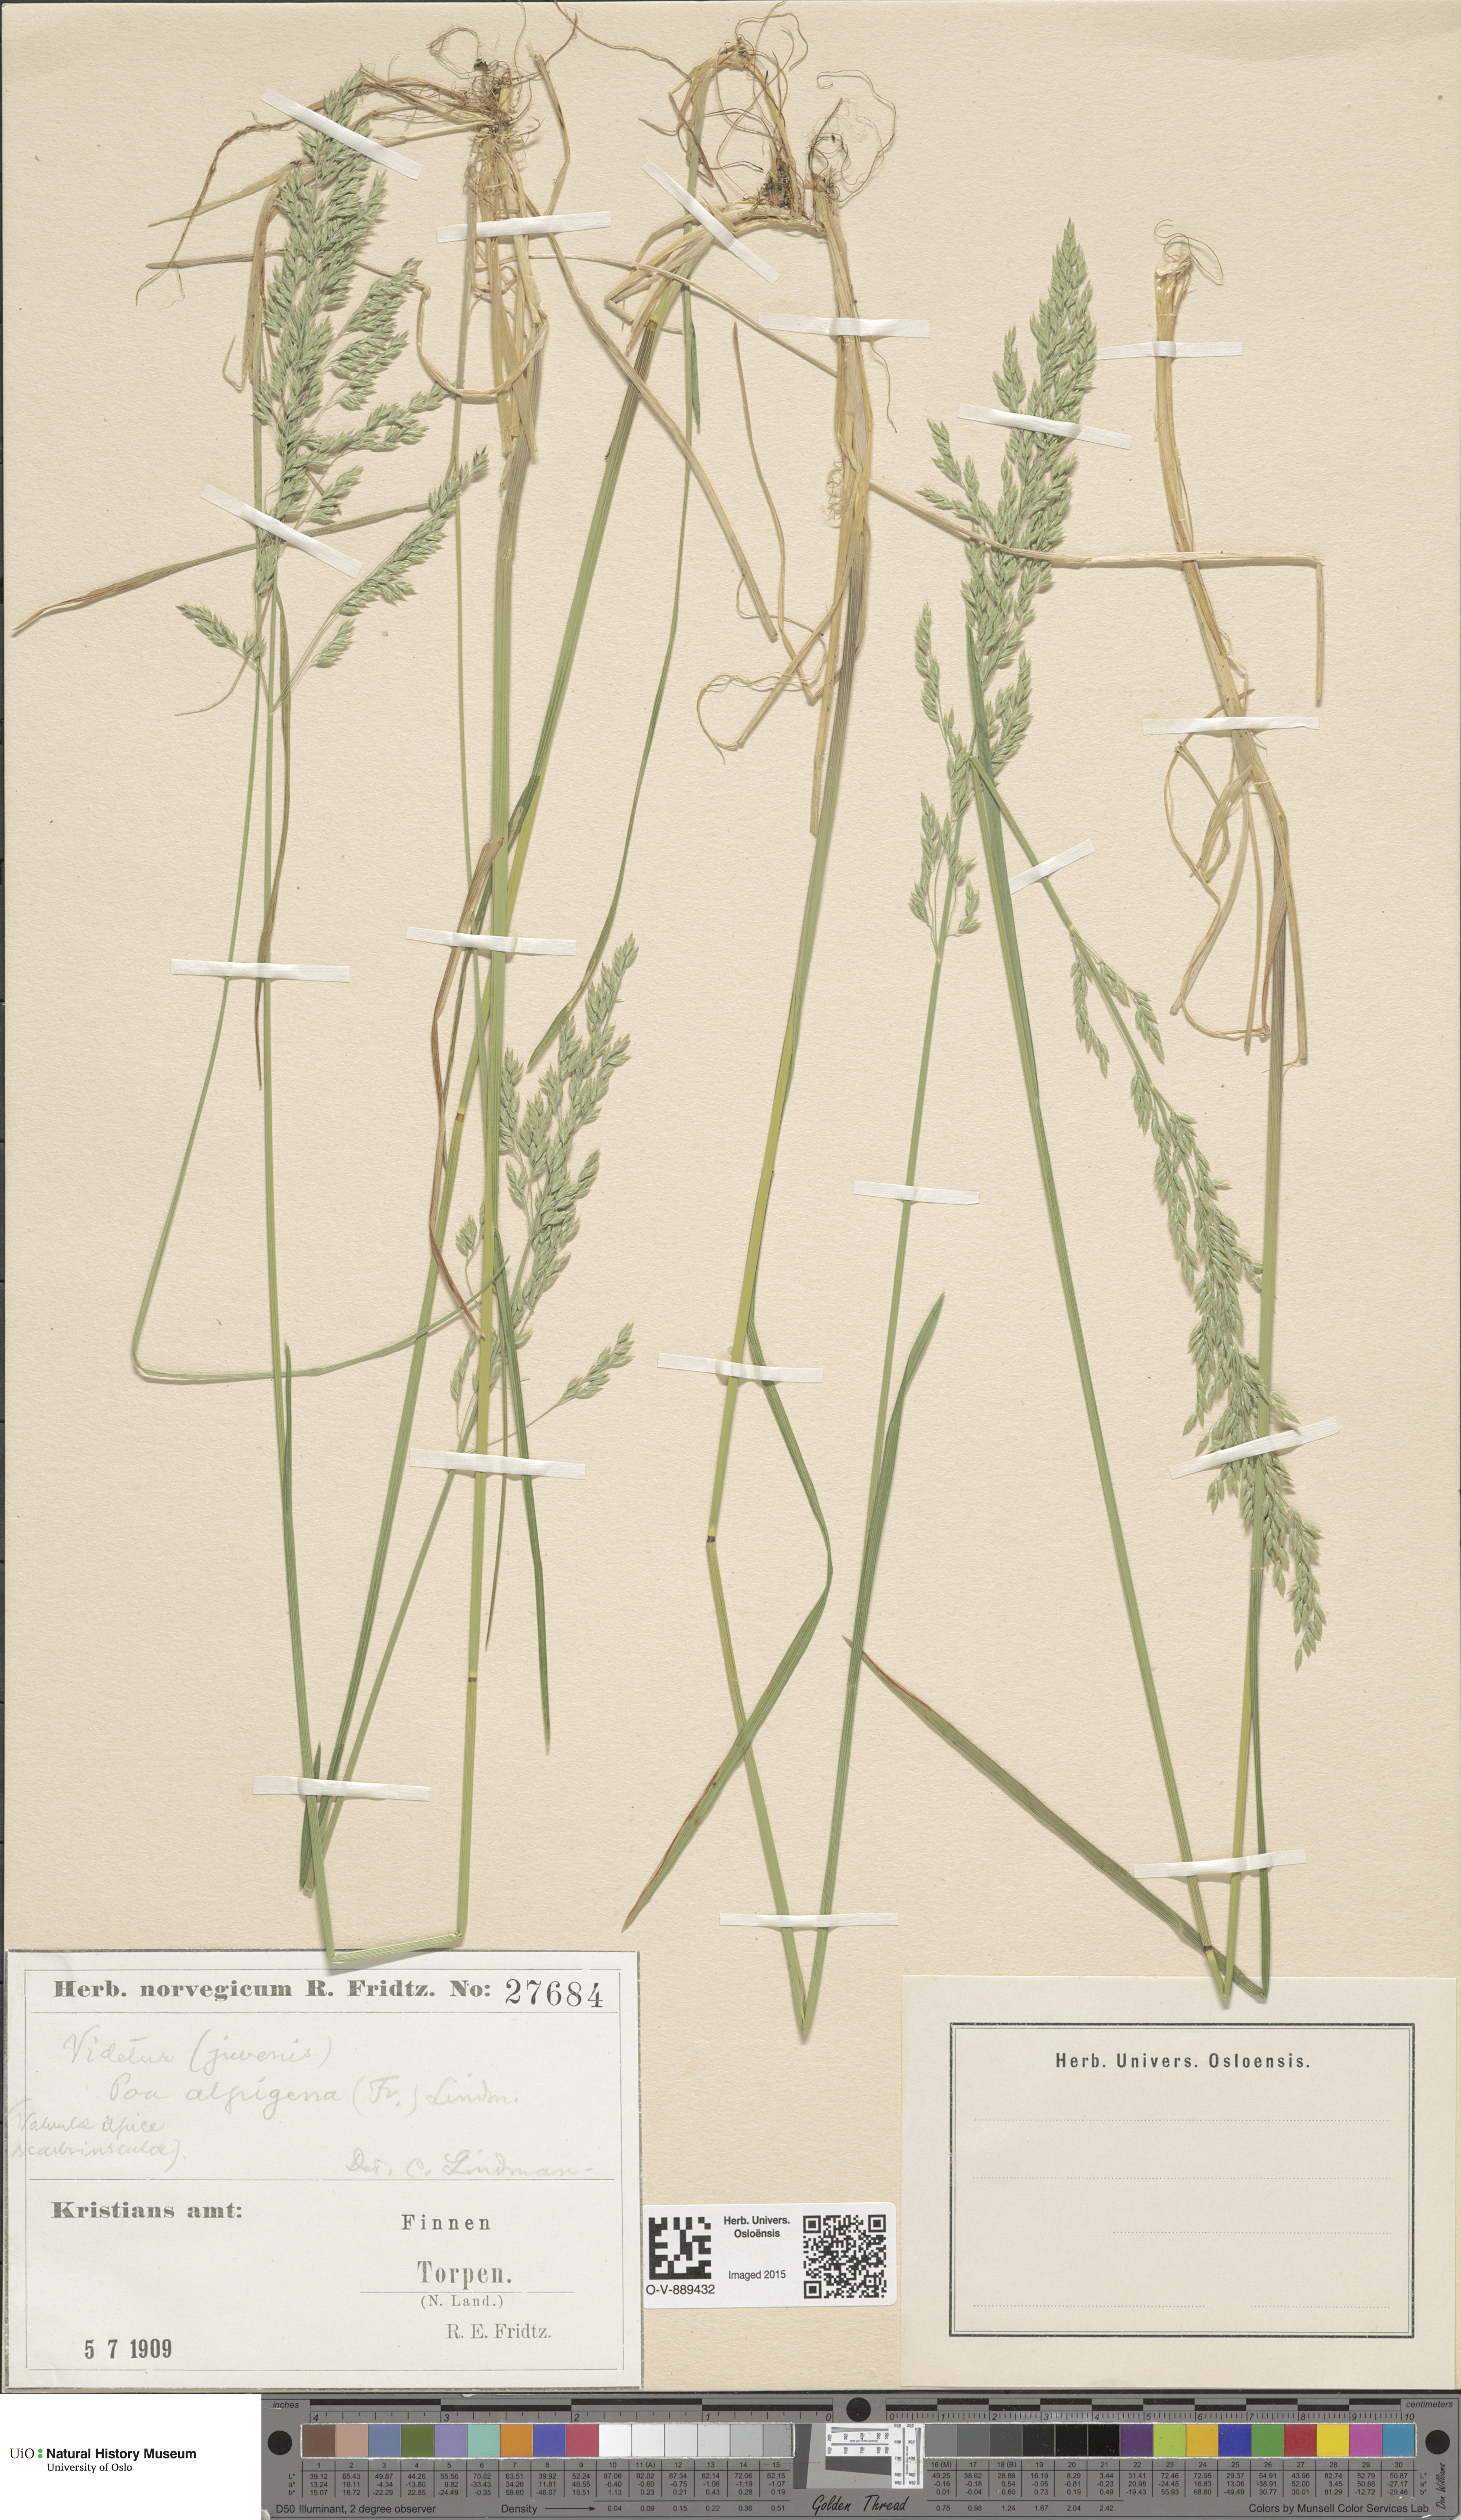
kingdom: Plantae
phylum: Tracheophyta
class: Liliopsida
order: Poales
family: Poaceae
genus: Poa
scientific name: Poa alpigena
